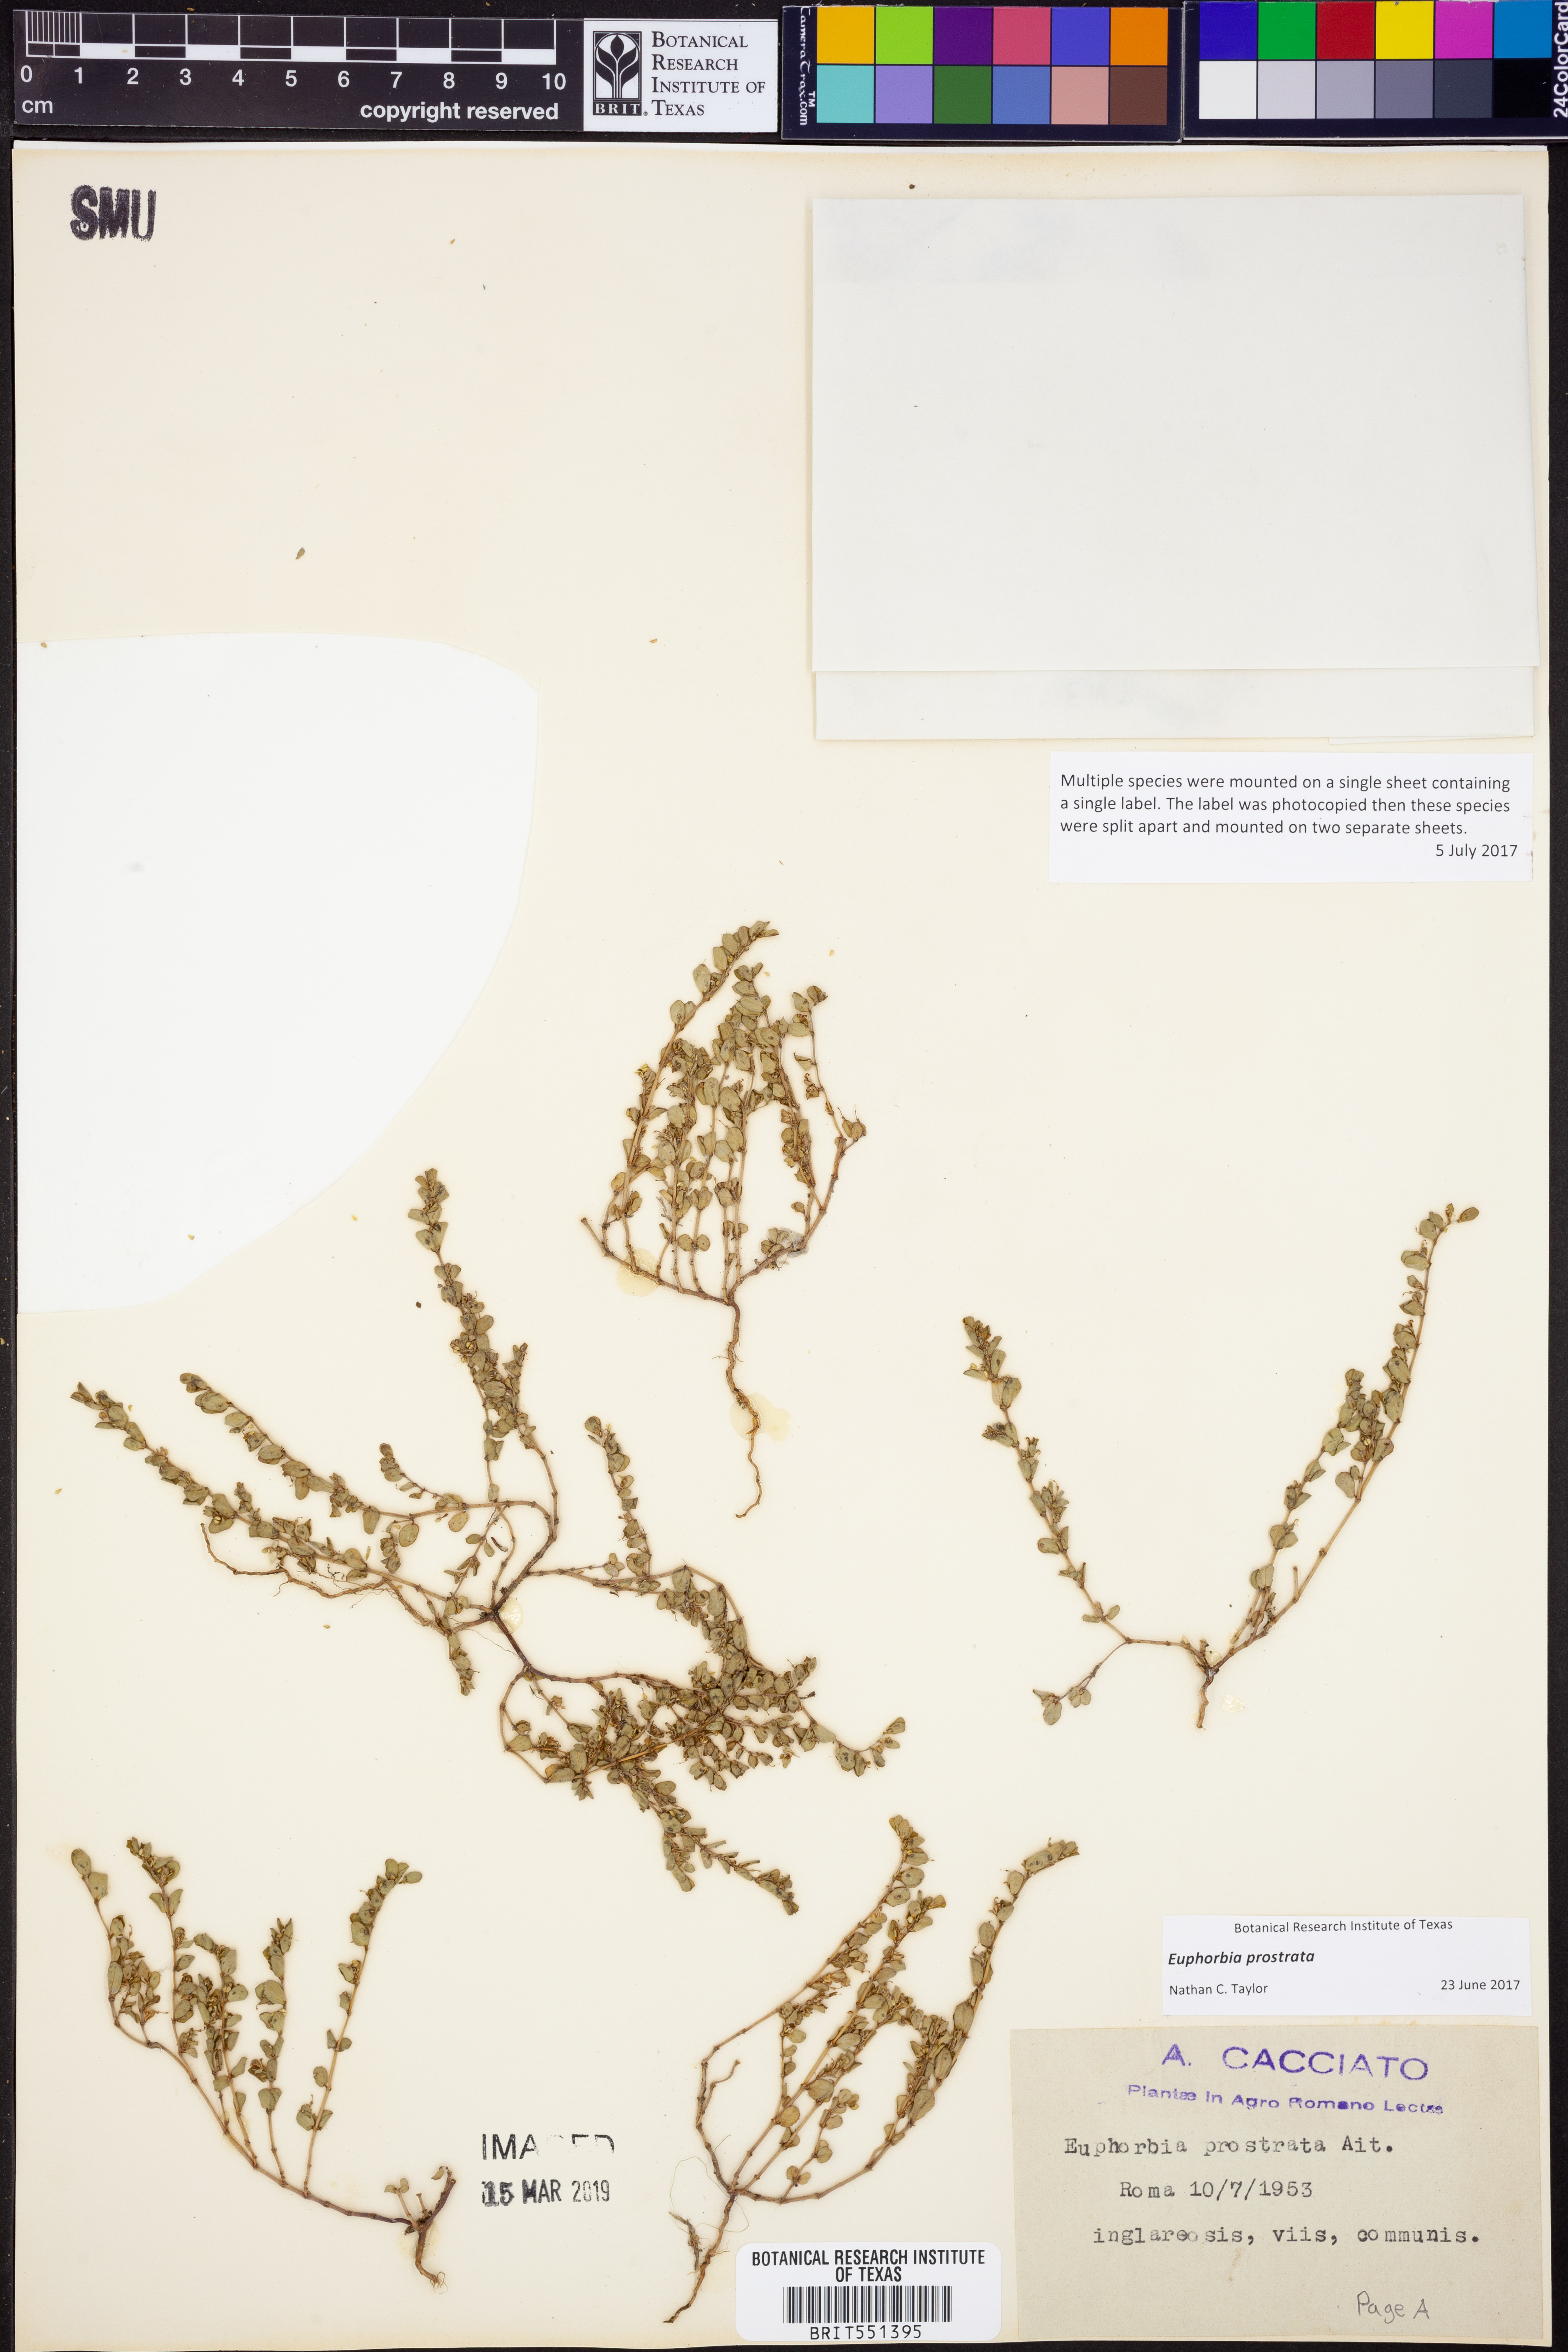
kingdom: Plantae
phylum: Tracheophyta
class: Magnoliopsida
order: Malpighiales
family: Euphorbiaceae
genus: Euphorbia
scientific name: Euphorbia prostrata
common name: Prostrate sandmat
